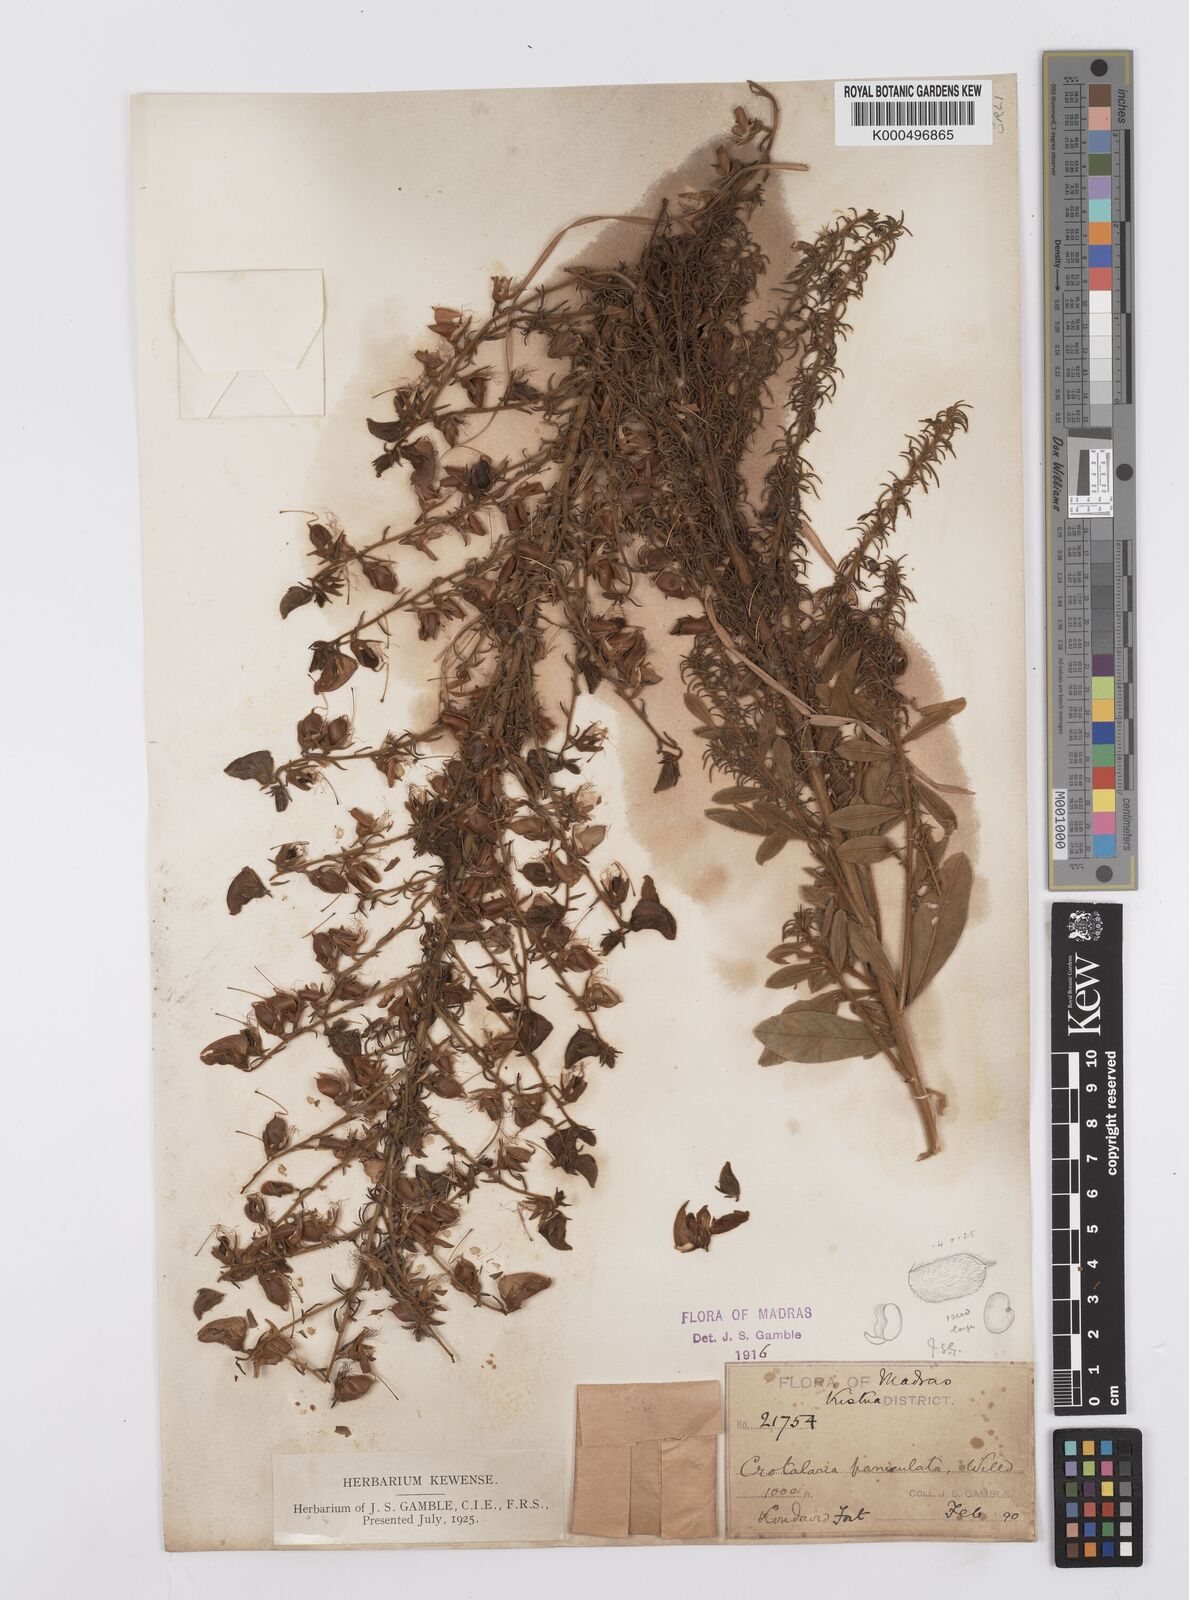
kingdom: Plantae
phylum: Tracheophyta
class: Magnoliopsida
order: Fabales
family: Fabaceae
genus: Crotalaria
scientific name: Crotalaria paniculata
